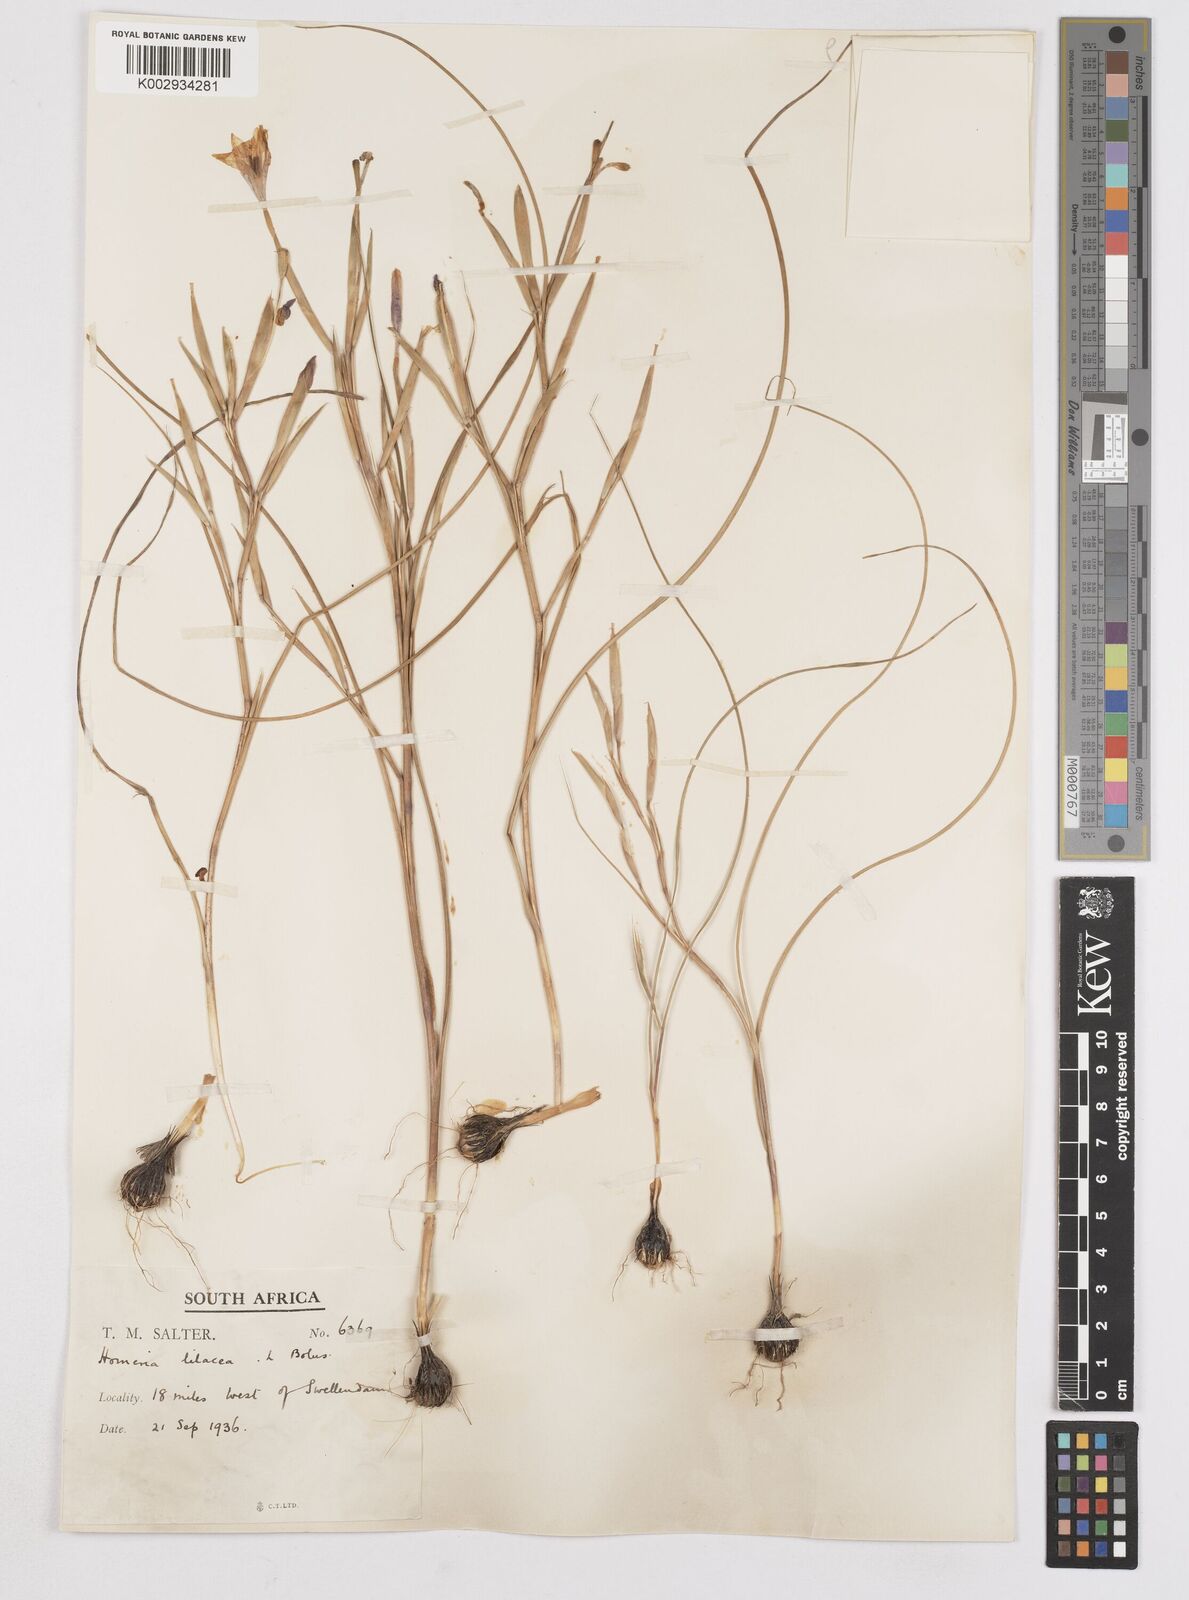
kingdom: Plantae
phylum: Tracheophyta
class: Liliopsida
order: Asparagales
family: Iridaceae
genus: Moraea
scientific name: Moraea
